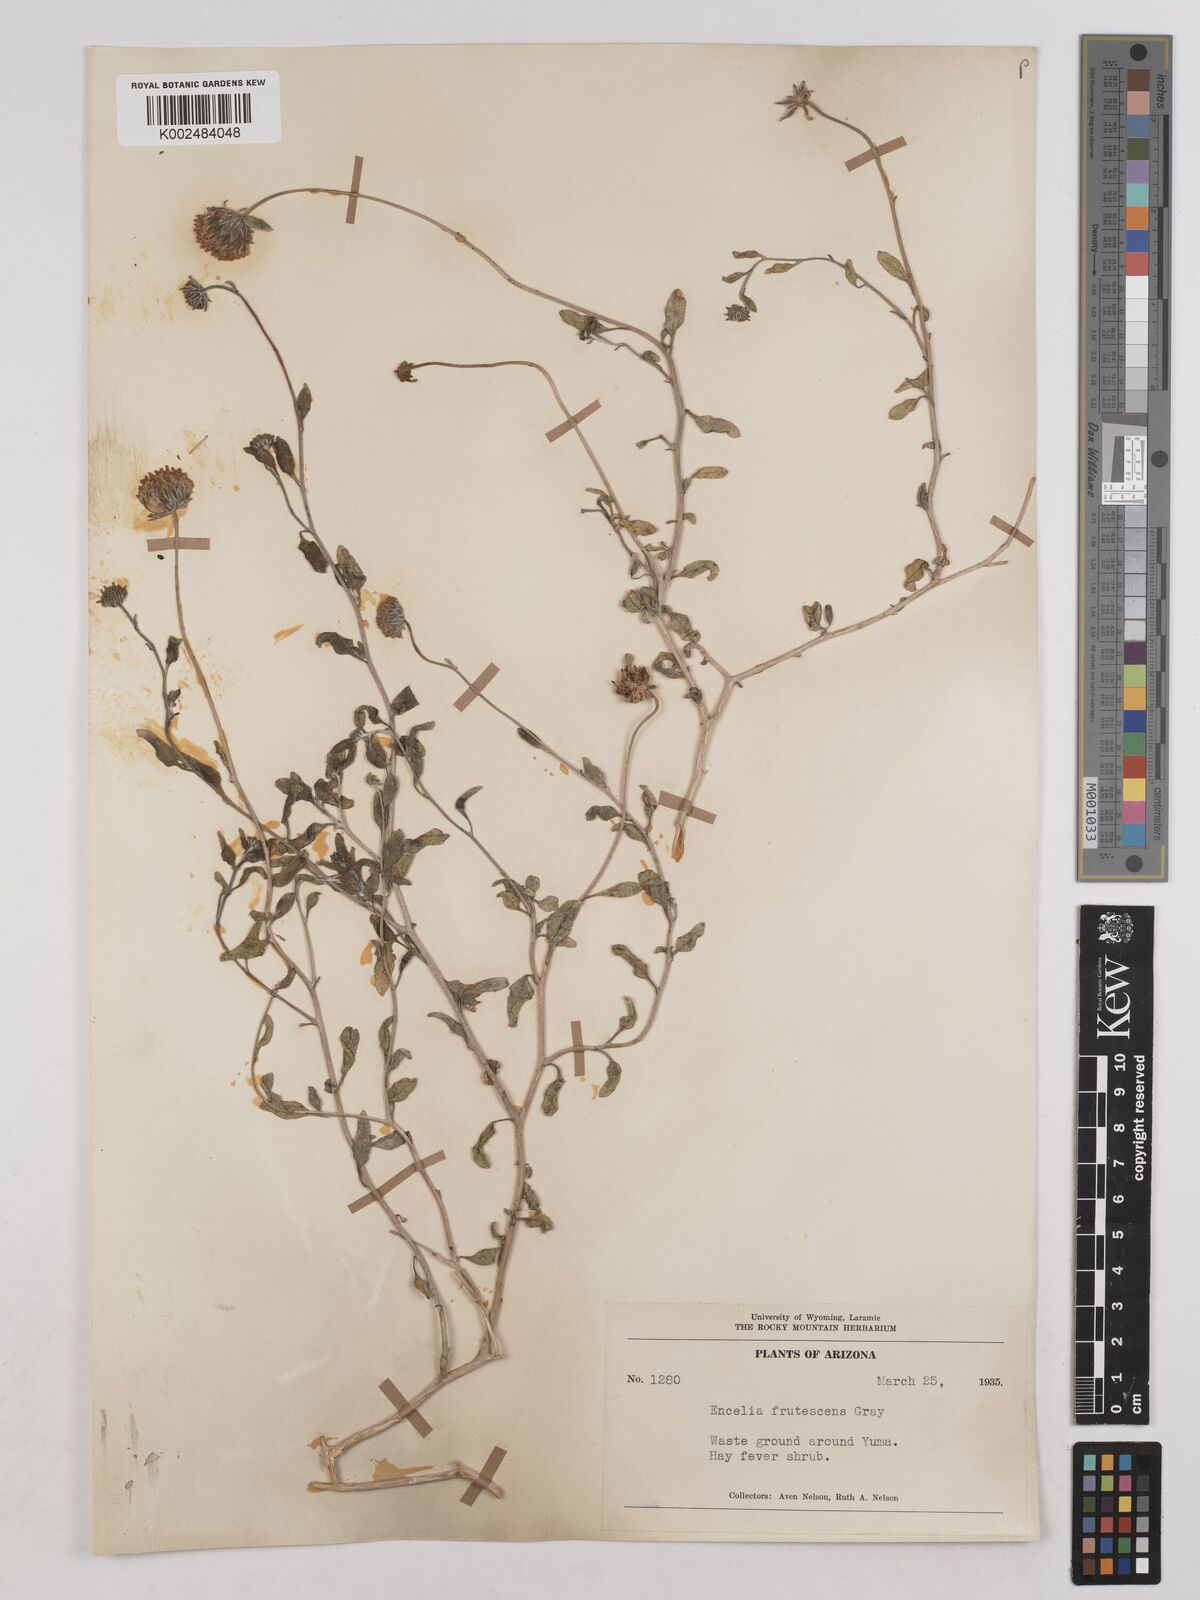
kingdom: Plantae
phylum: Tracheophyta
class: Magnoliopsida
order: Asterales
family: Asteraceae
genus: Encelia
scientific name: Encelia frutescens
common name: Bush encelia
